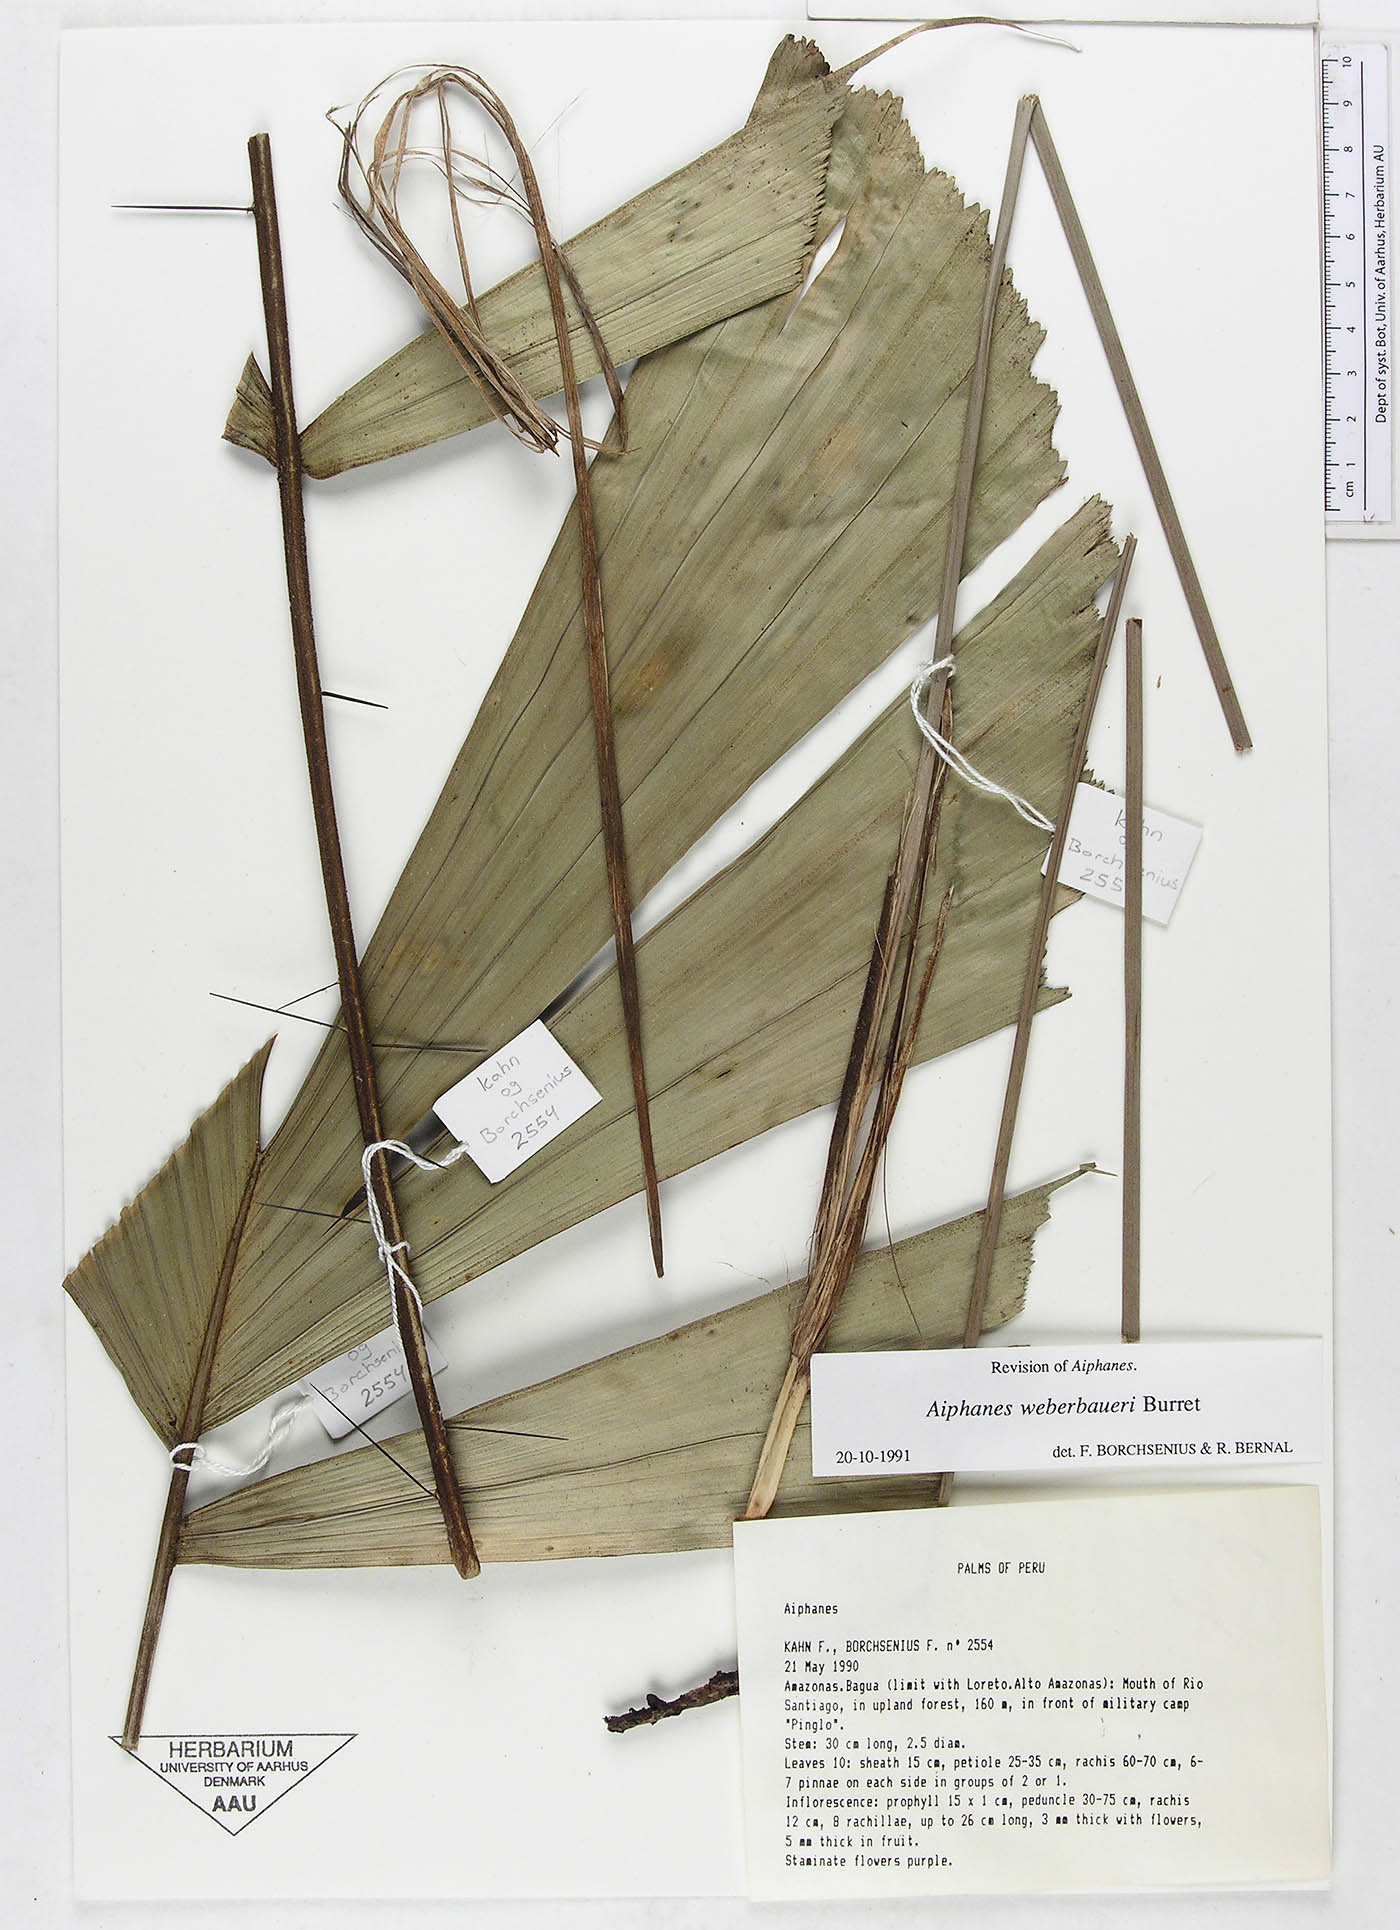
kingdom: Plantae
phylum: Tracheophyta
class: Liliopsida
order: Arecales
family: Arecaceae
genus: Aiphanes
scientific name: Aiphanes weberbaueri
